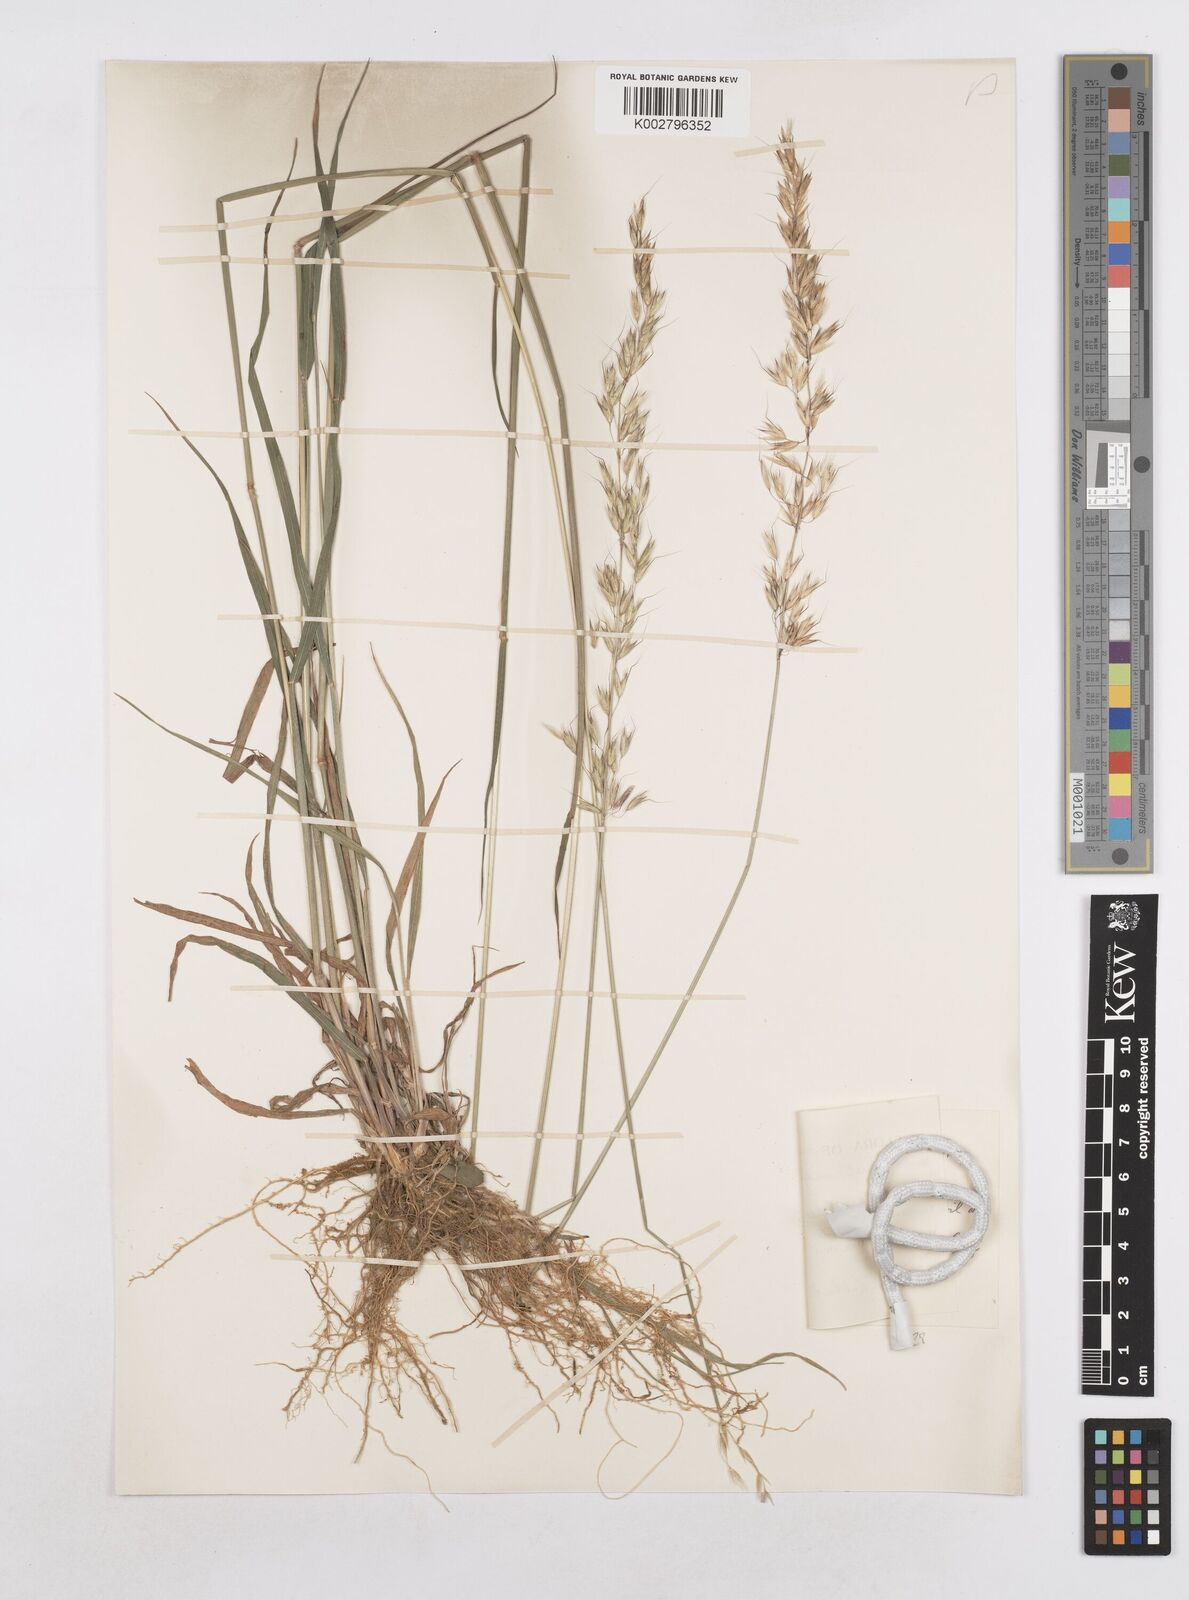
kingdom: Plantae
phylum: Tracheophyta
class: Liliopsida
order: Poales
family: Poaceae
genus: Arrhenatherum
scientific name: Arrhenatherum elatius
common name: Tall oatgrass
